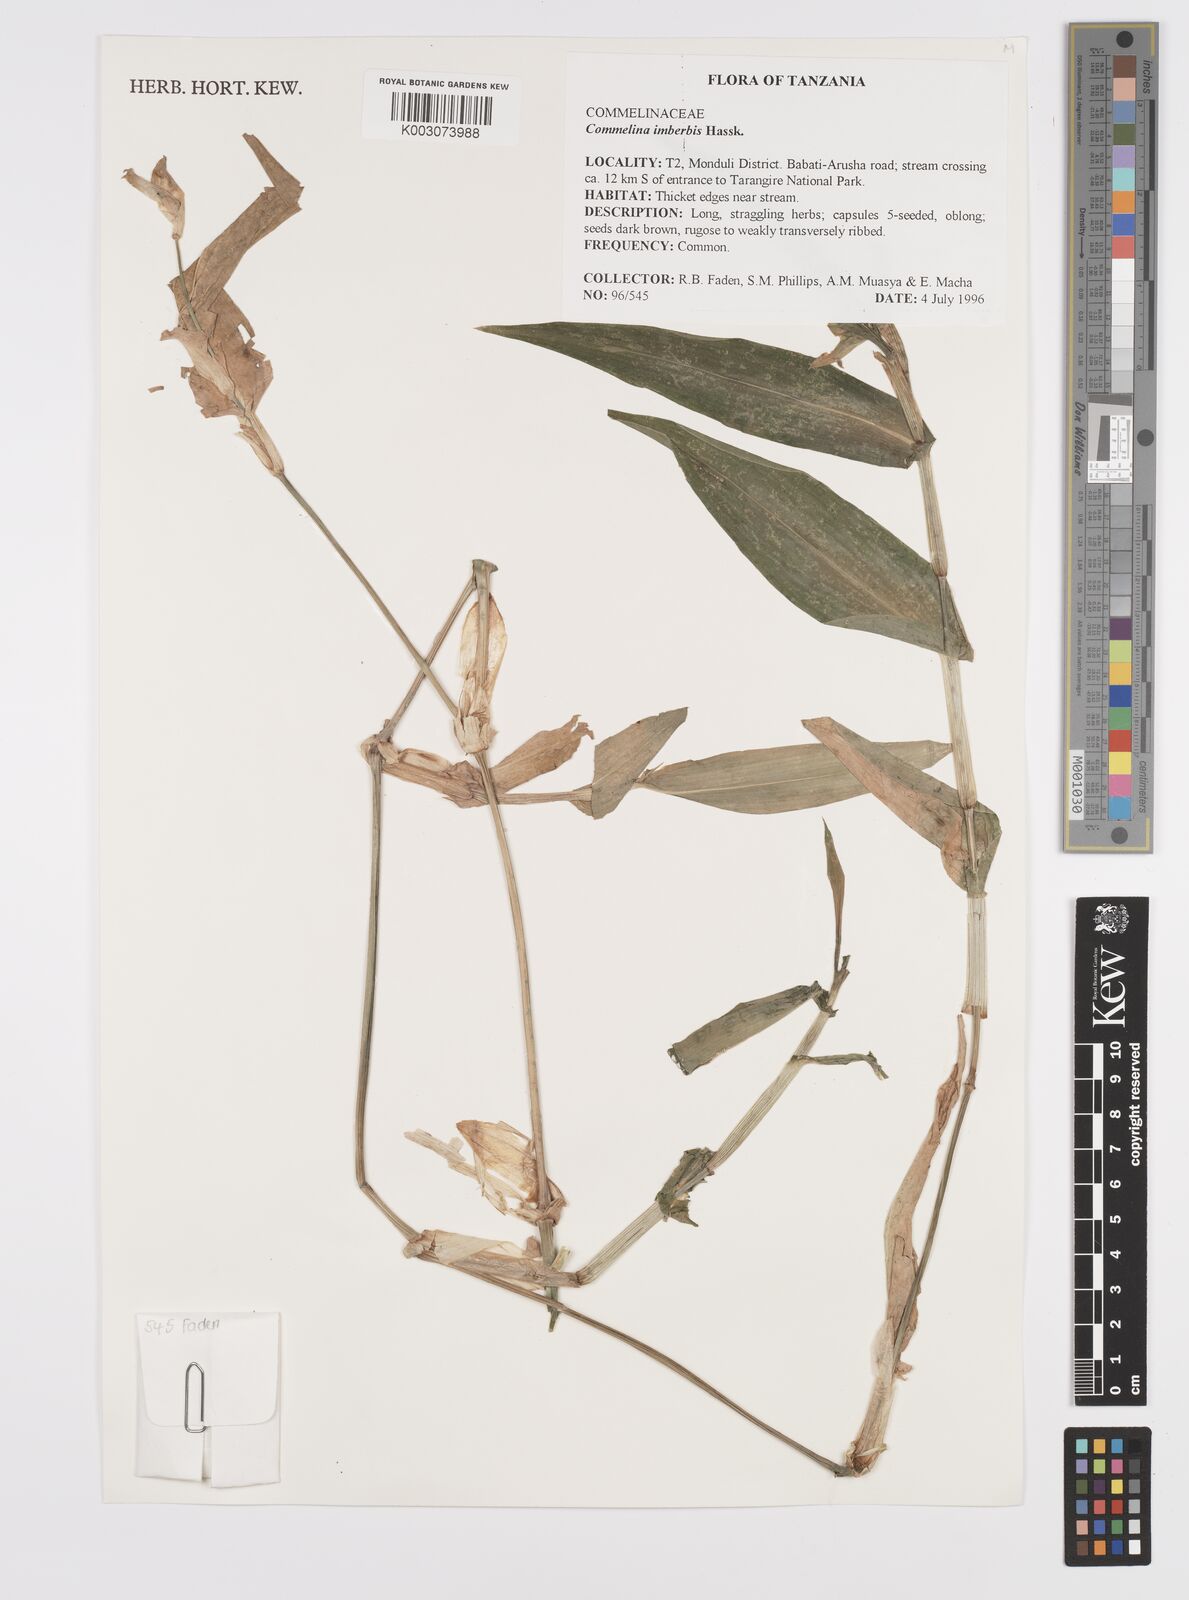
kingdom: Plantae
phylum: Tracheophyta
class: Liliopsida
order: Commelinales
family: Commelinaceae
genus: Commelina
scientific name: Commelina imberbis
